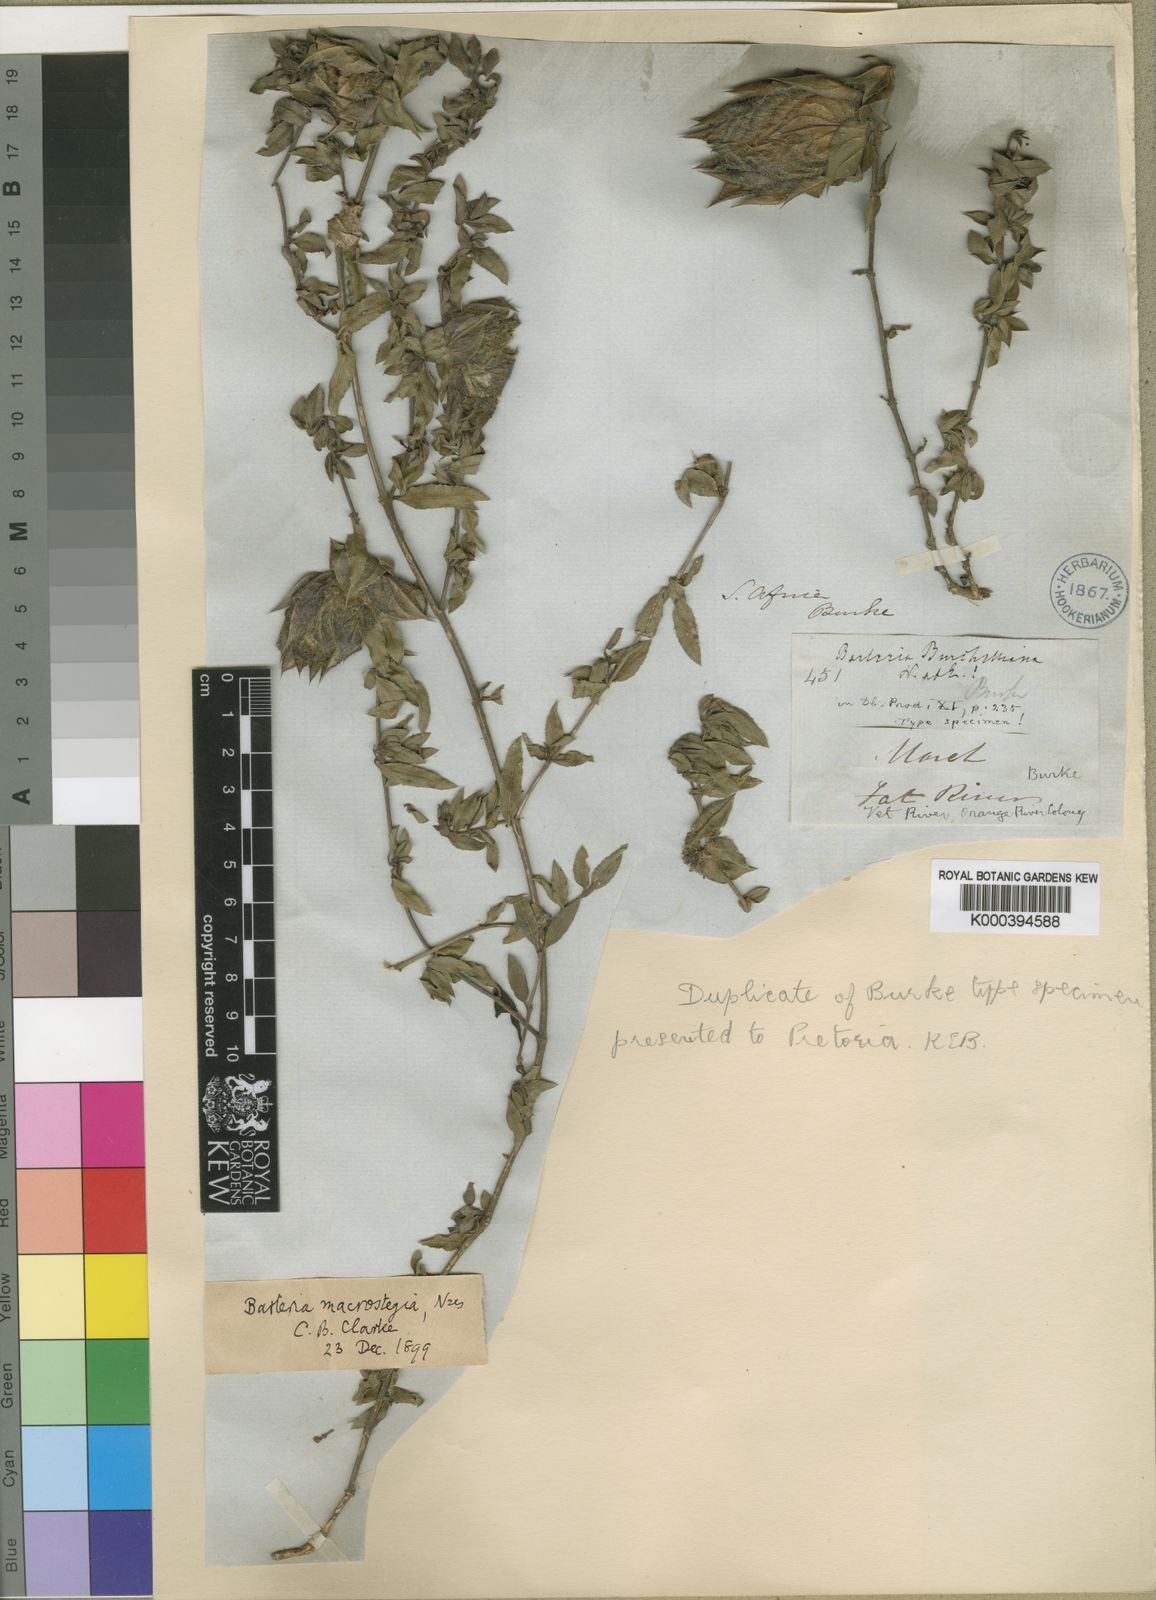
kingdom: Plantae
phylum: Tracheophyta
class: Magnoliopsida
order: Lamiales
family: Acanthaceae
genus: Barleria
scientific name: Barleria macrostegia
